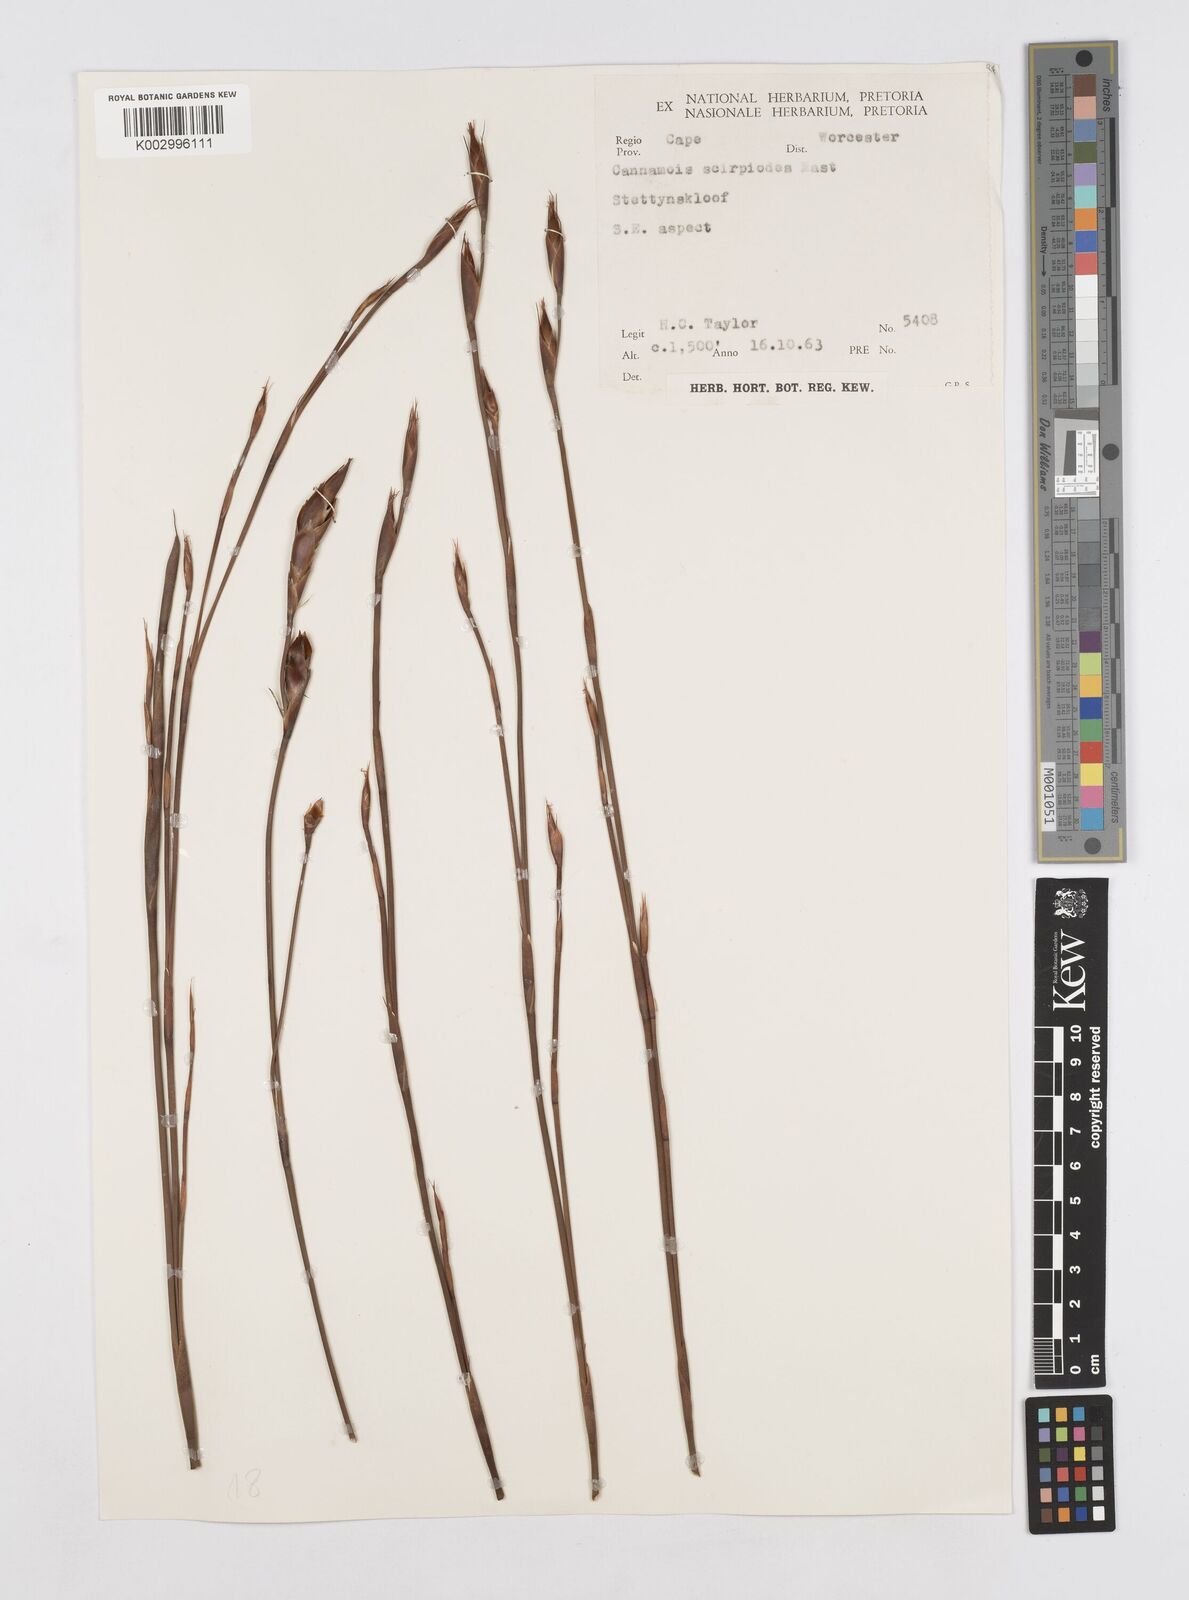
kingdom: Plantae
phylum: Tracheophyta
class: Liliopsida
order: Poales
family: Restionaceae
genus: Cannomois
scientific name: Cannomois scirpoides
